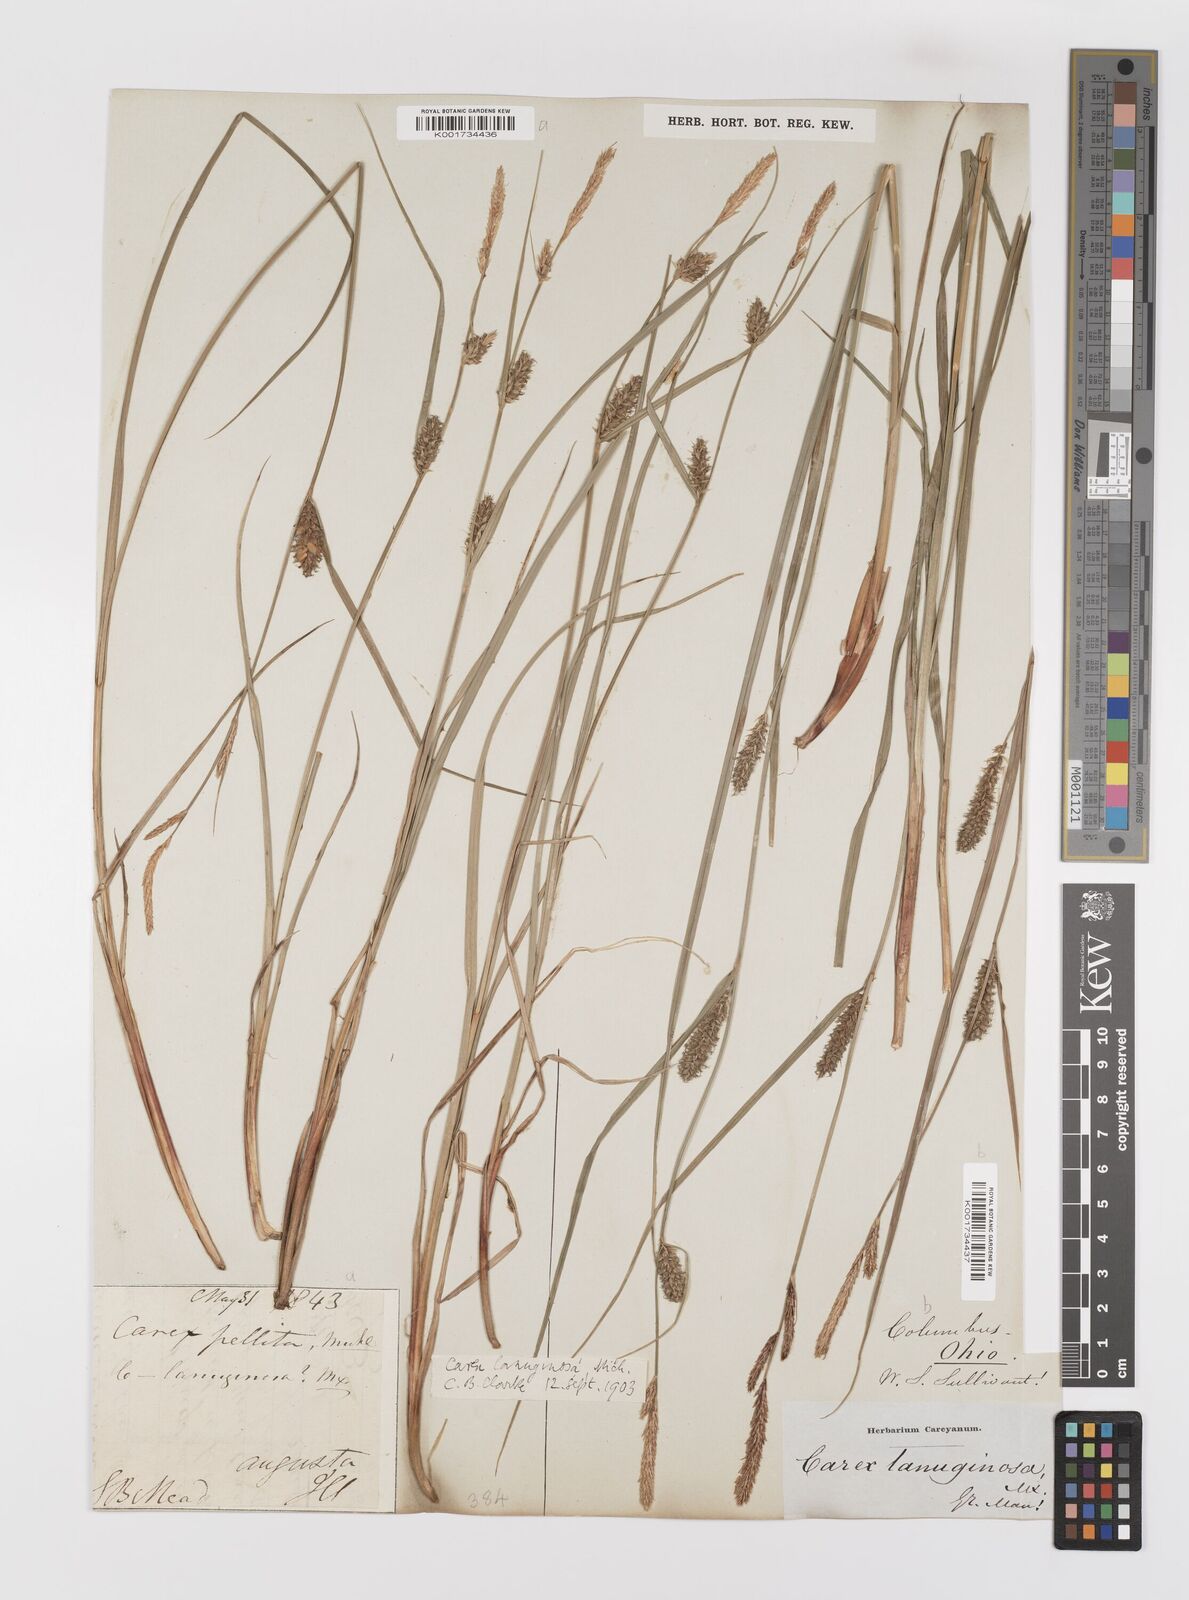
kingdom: Plantae
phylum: Tracheophyta
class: Liliopsida
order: Poales
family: Cyperaceae
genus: Carex
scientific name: Carex lasiocarpa
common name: Slender sedge
